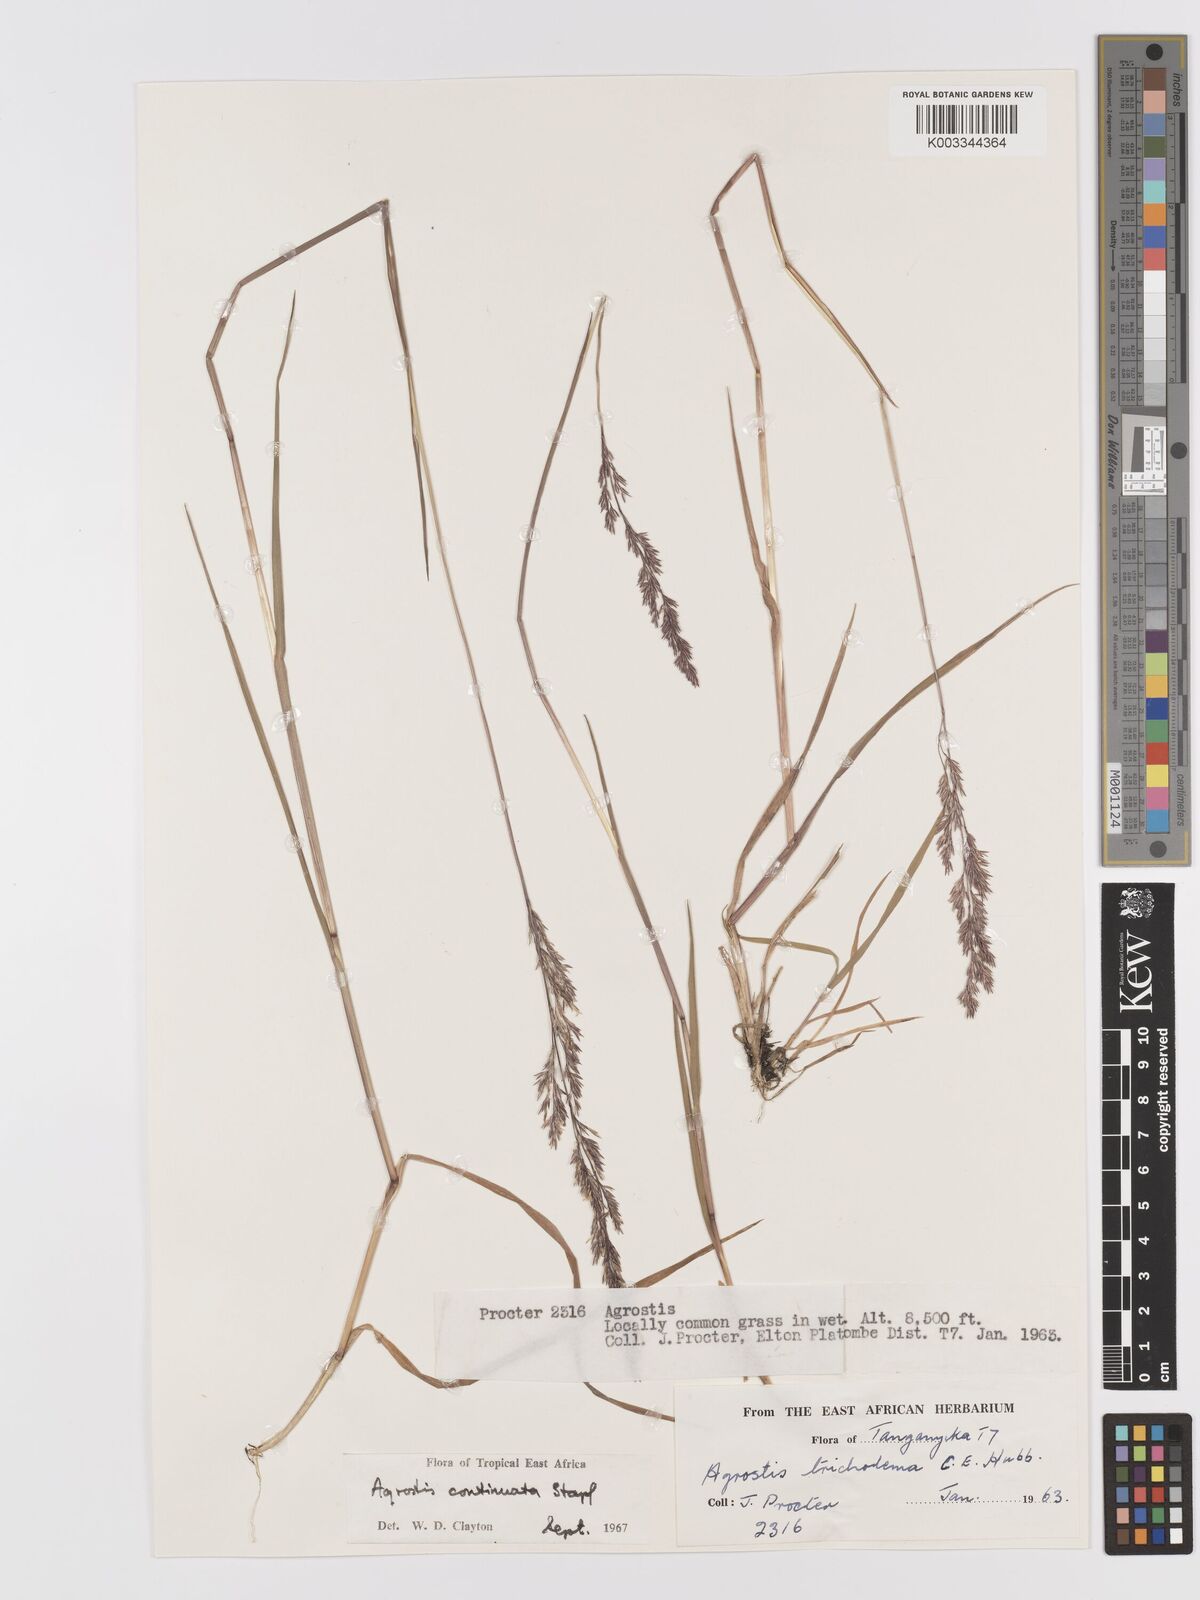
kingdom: Plantae
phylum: Tracheophyta
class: Liliopsida
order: Poales
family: Poaceae
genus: Agrostis
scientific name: Agrostis continuata
